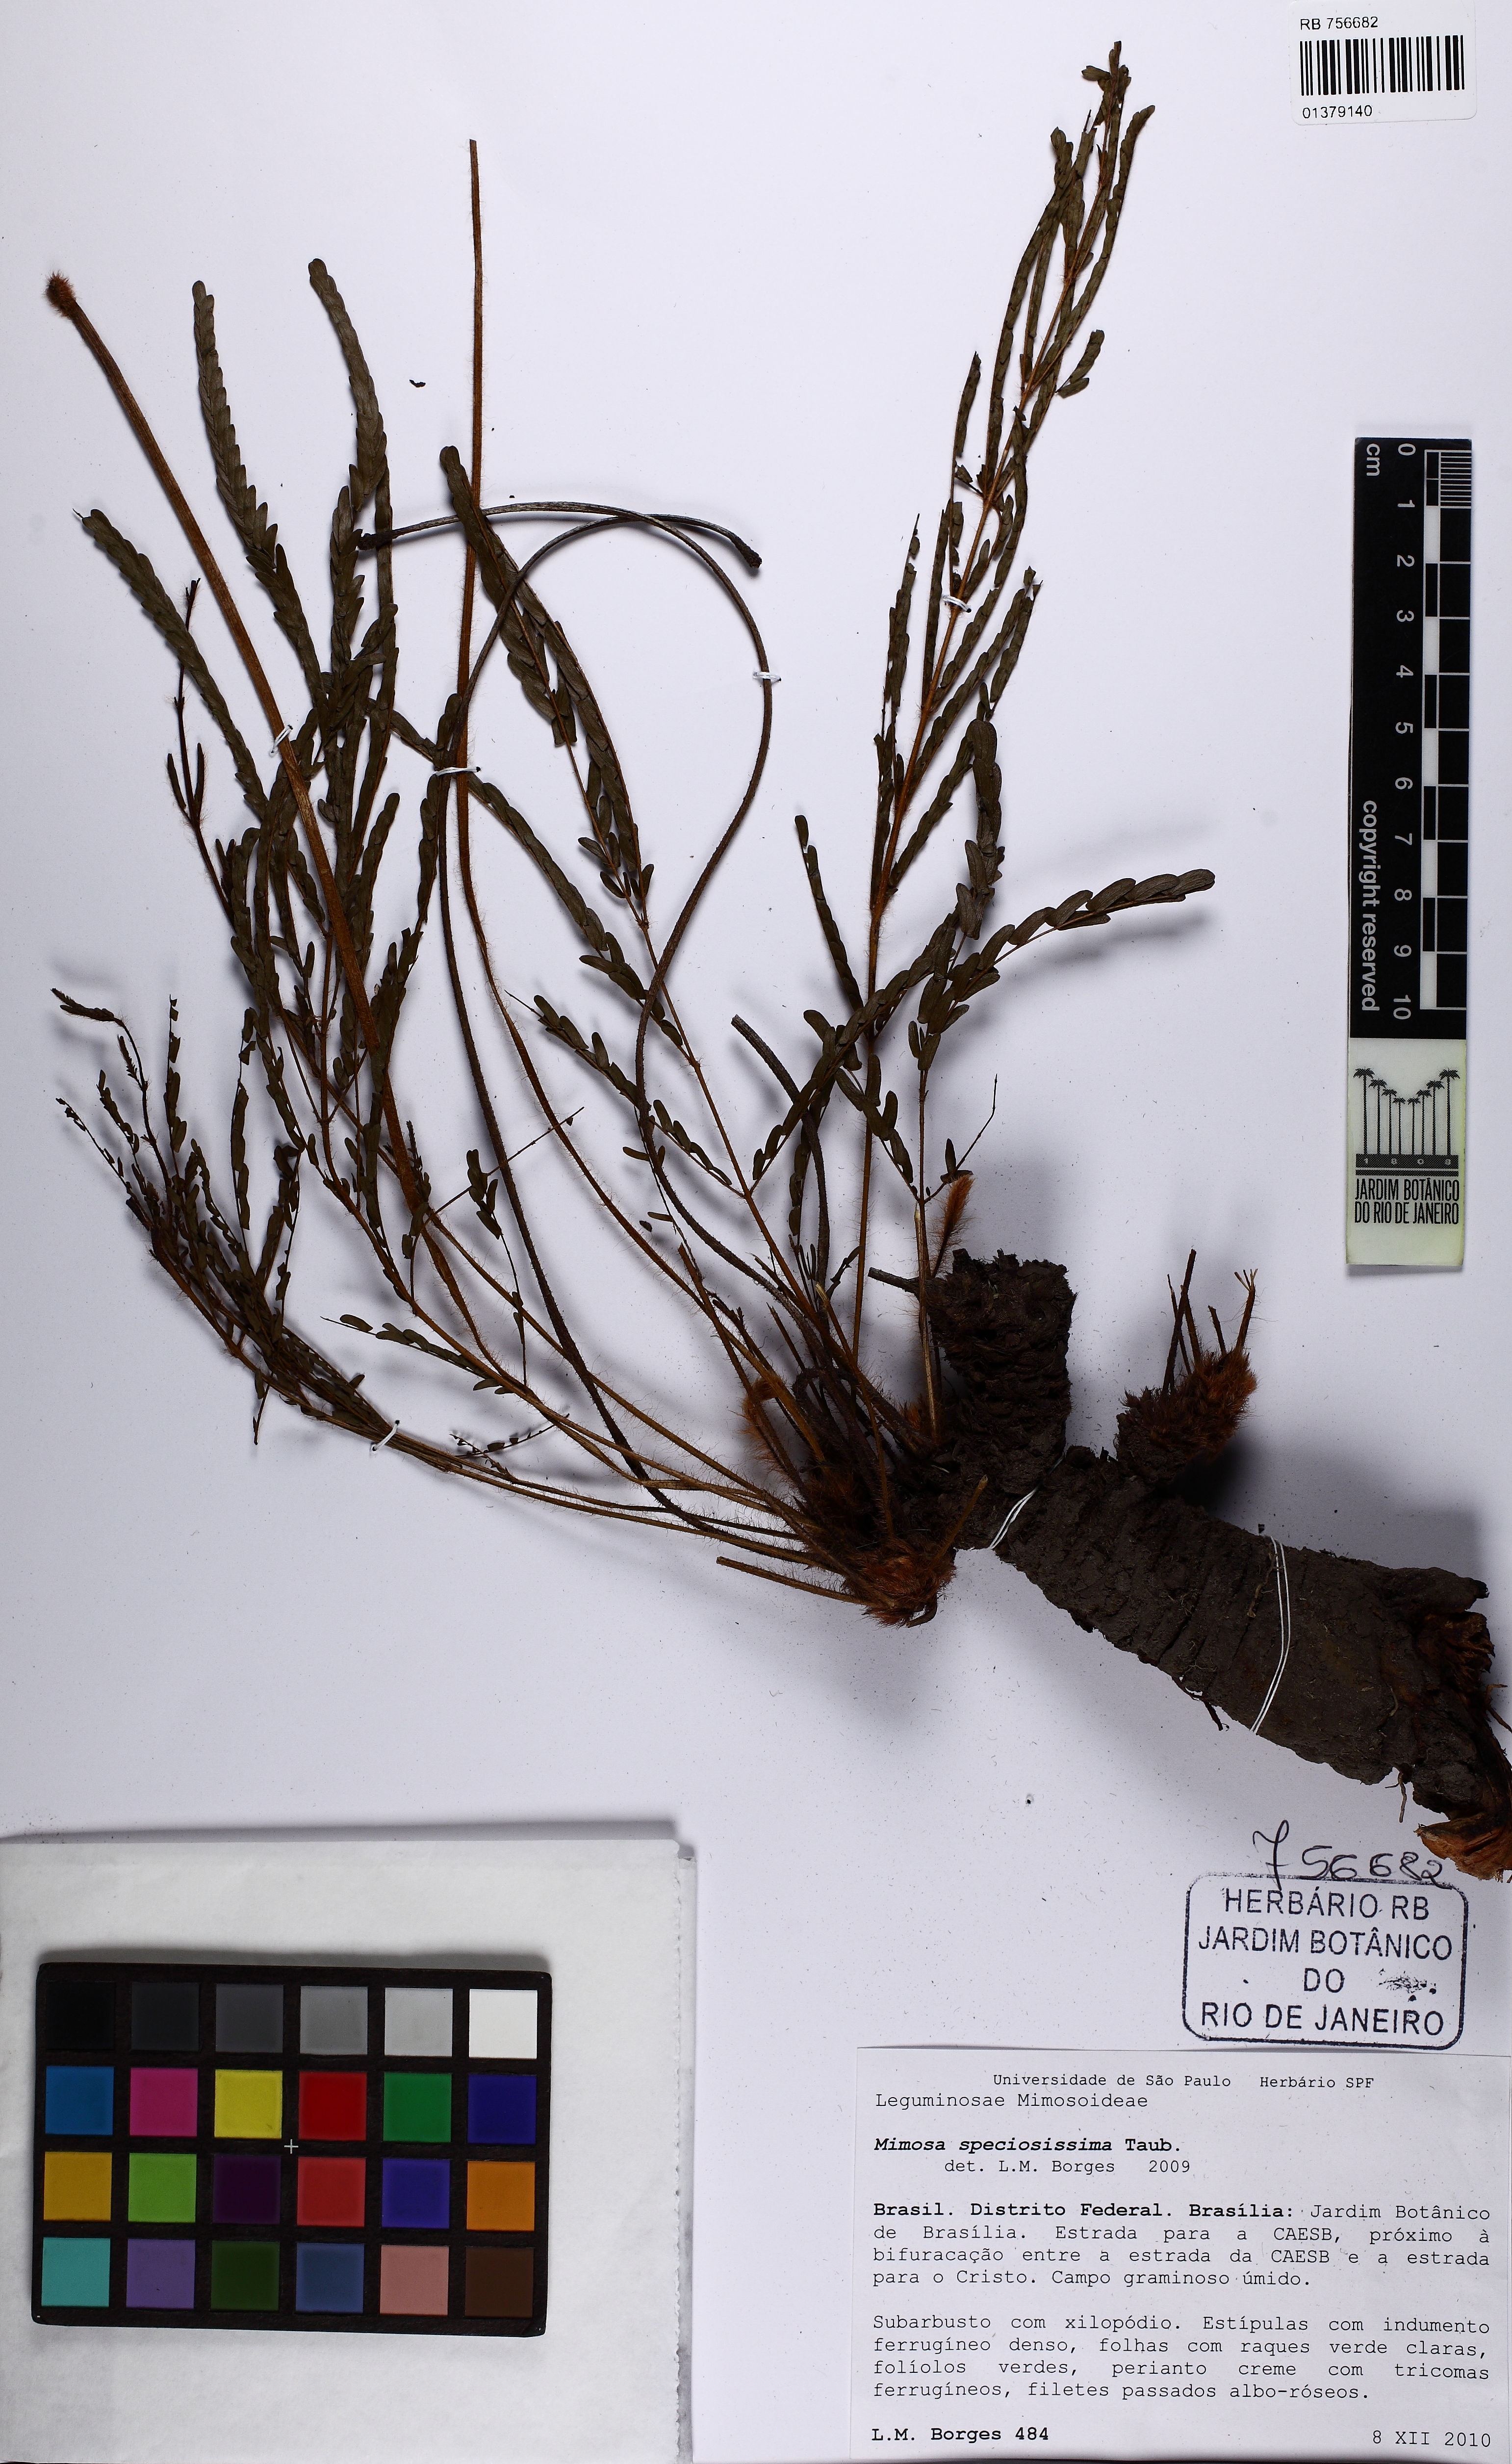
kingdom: Plantae
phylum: Tracheophyta
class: Magnoliopsida
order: Fabales
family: Fabaceae
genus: Mimosa
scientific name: Mimosa speciosissima
